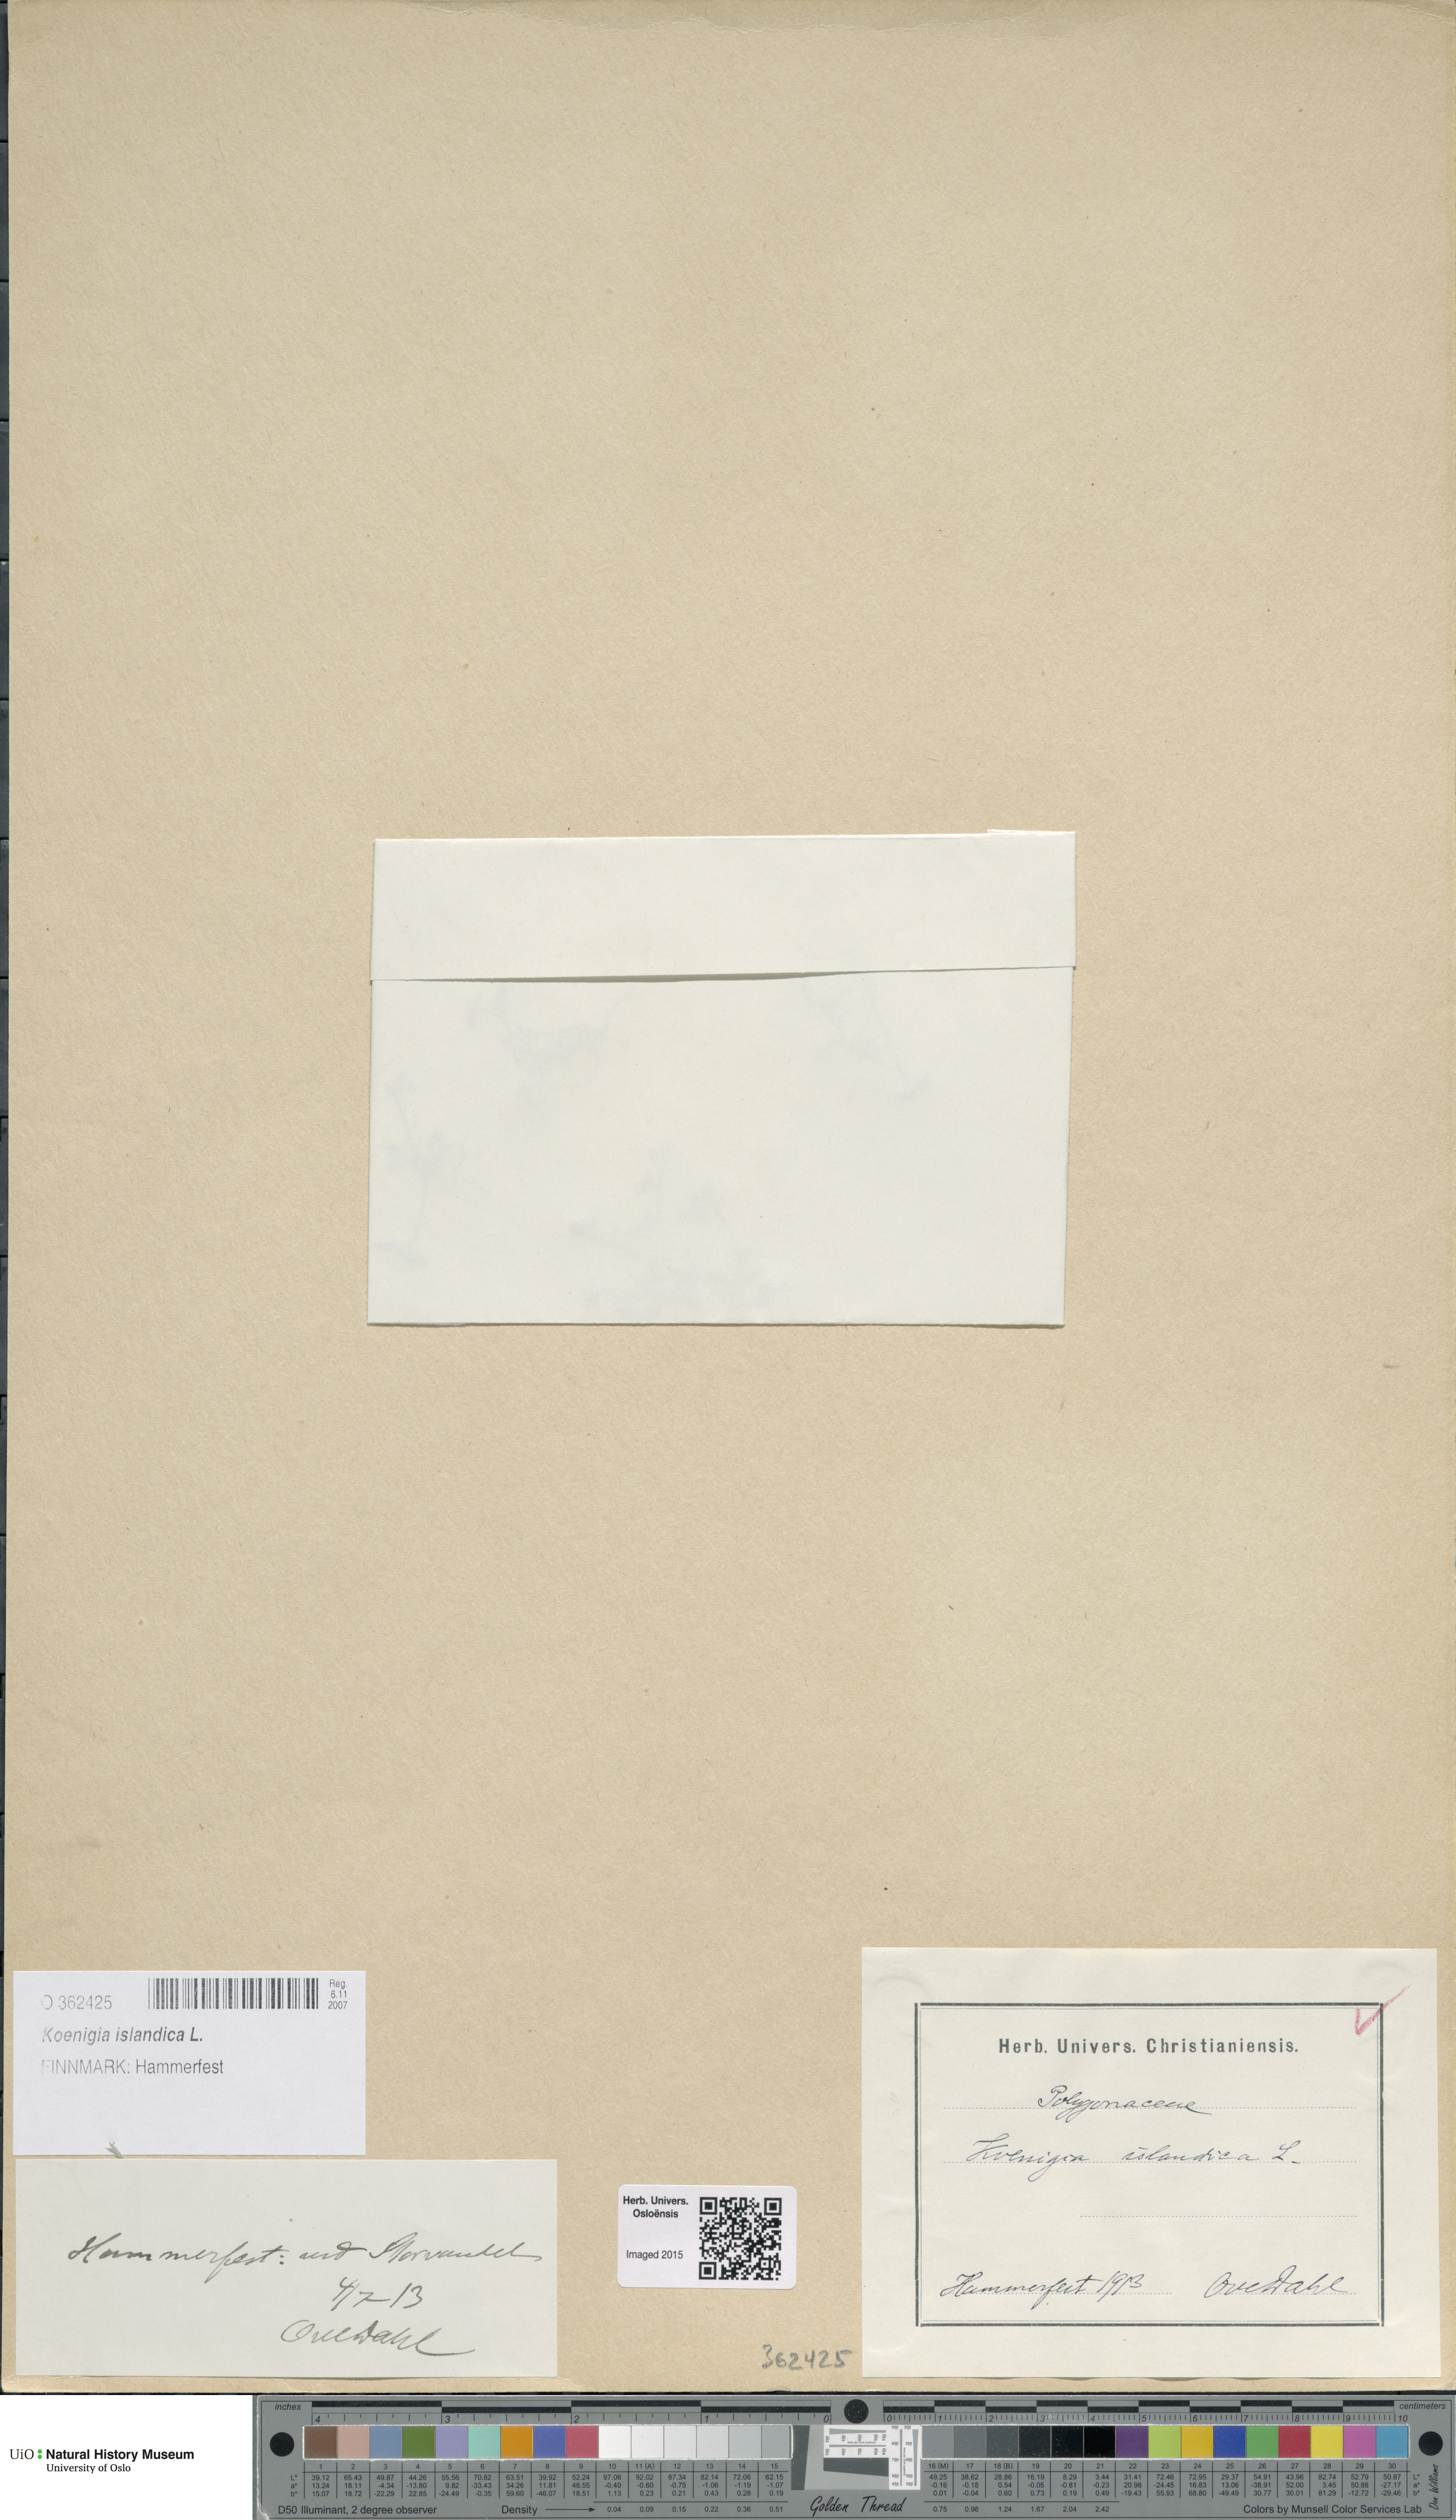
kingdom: Plantae
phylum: Tracheophyta
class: Magnoliopsida
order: Caryophyllales
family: Polygonaceae
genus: Koenigia
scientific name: Koenigia islandica
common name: Iceland-purslane
